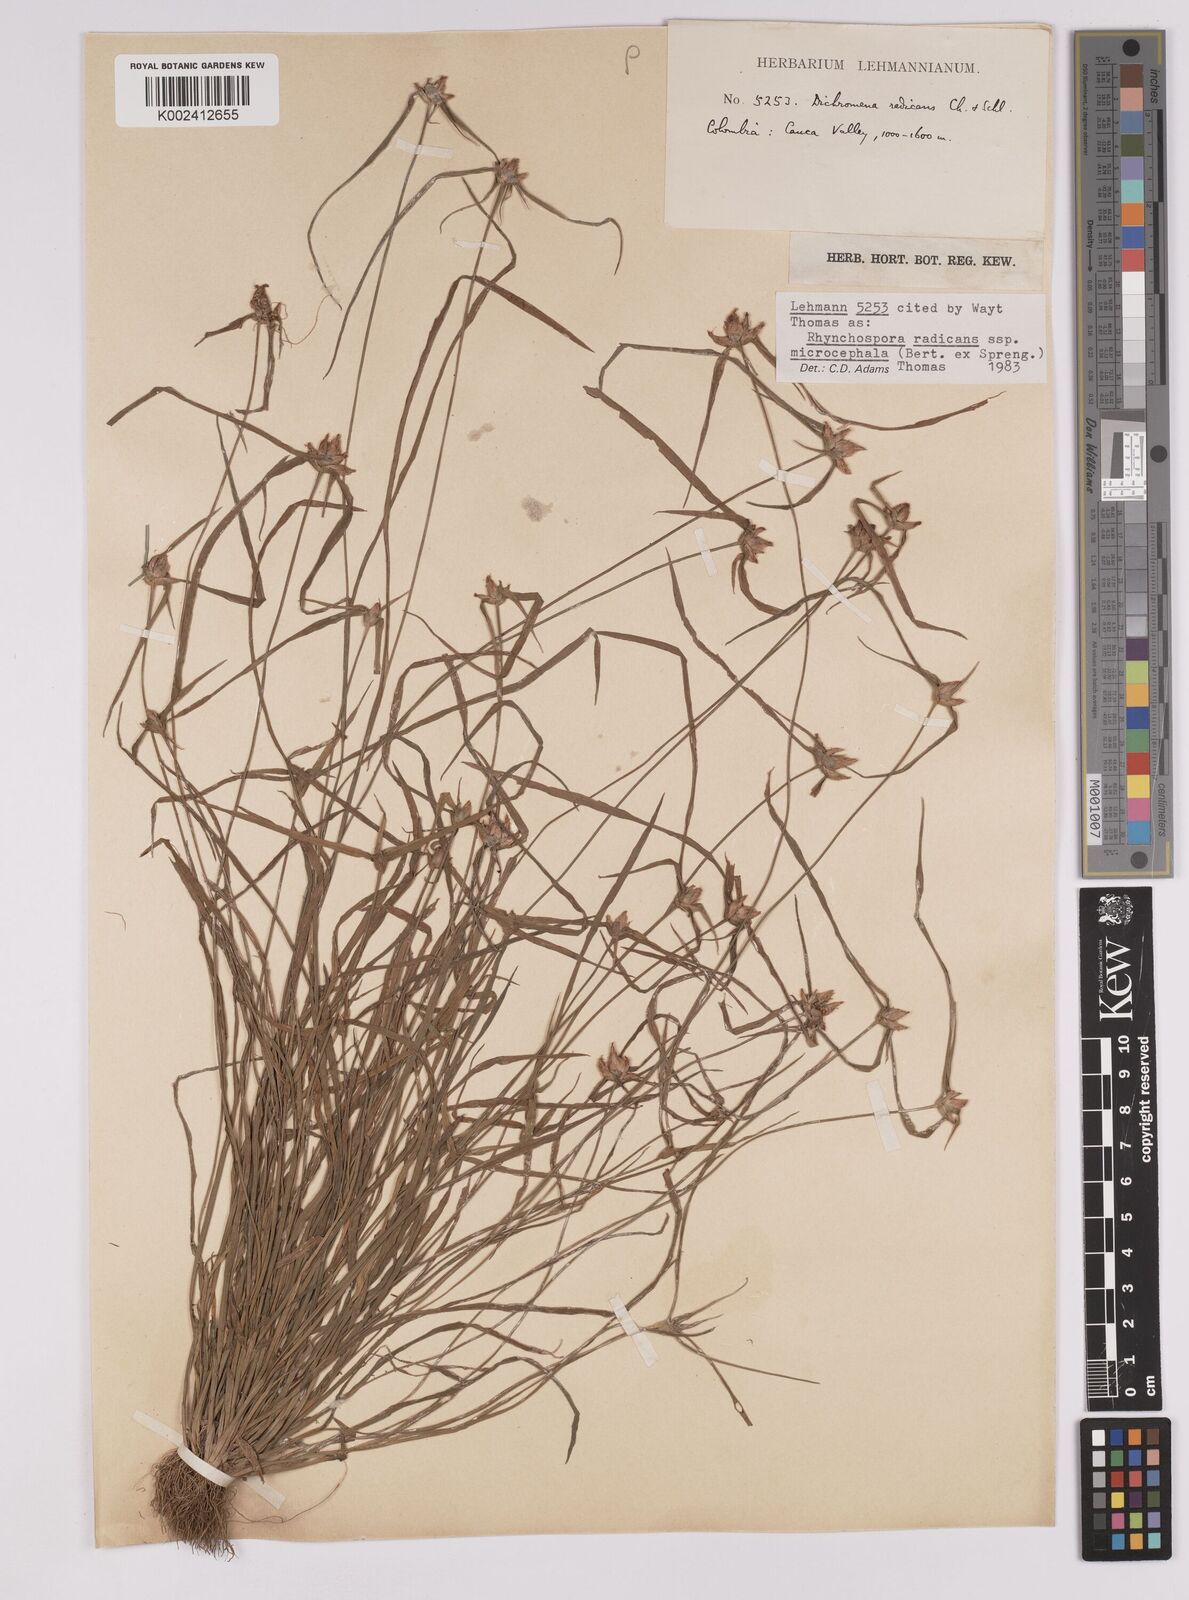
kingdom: Plantae
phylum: Tracheophyta
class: Liliopsida
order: Poales
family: Cyperaceae
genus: Rhynchospora
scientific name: Rhynchospora radicans
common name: Tropical whitetop
